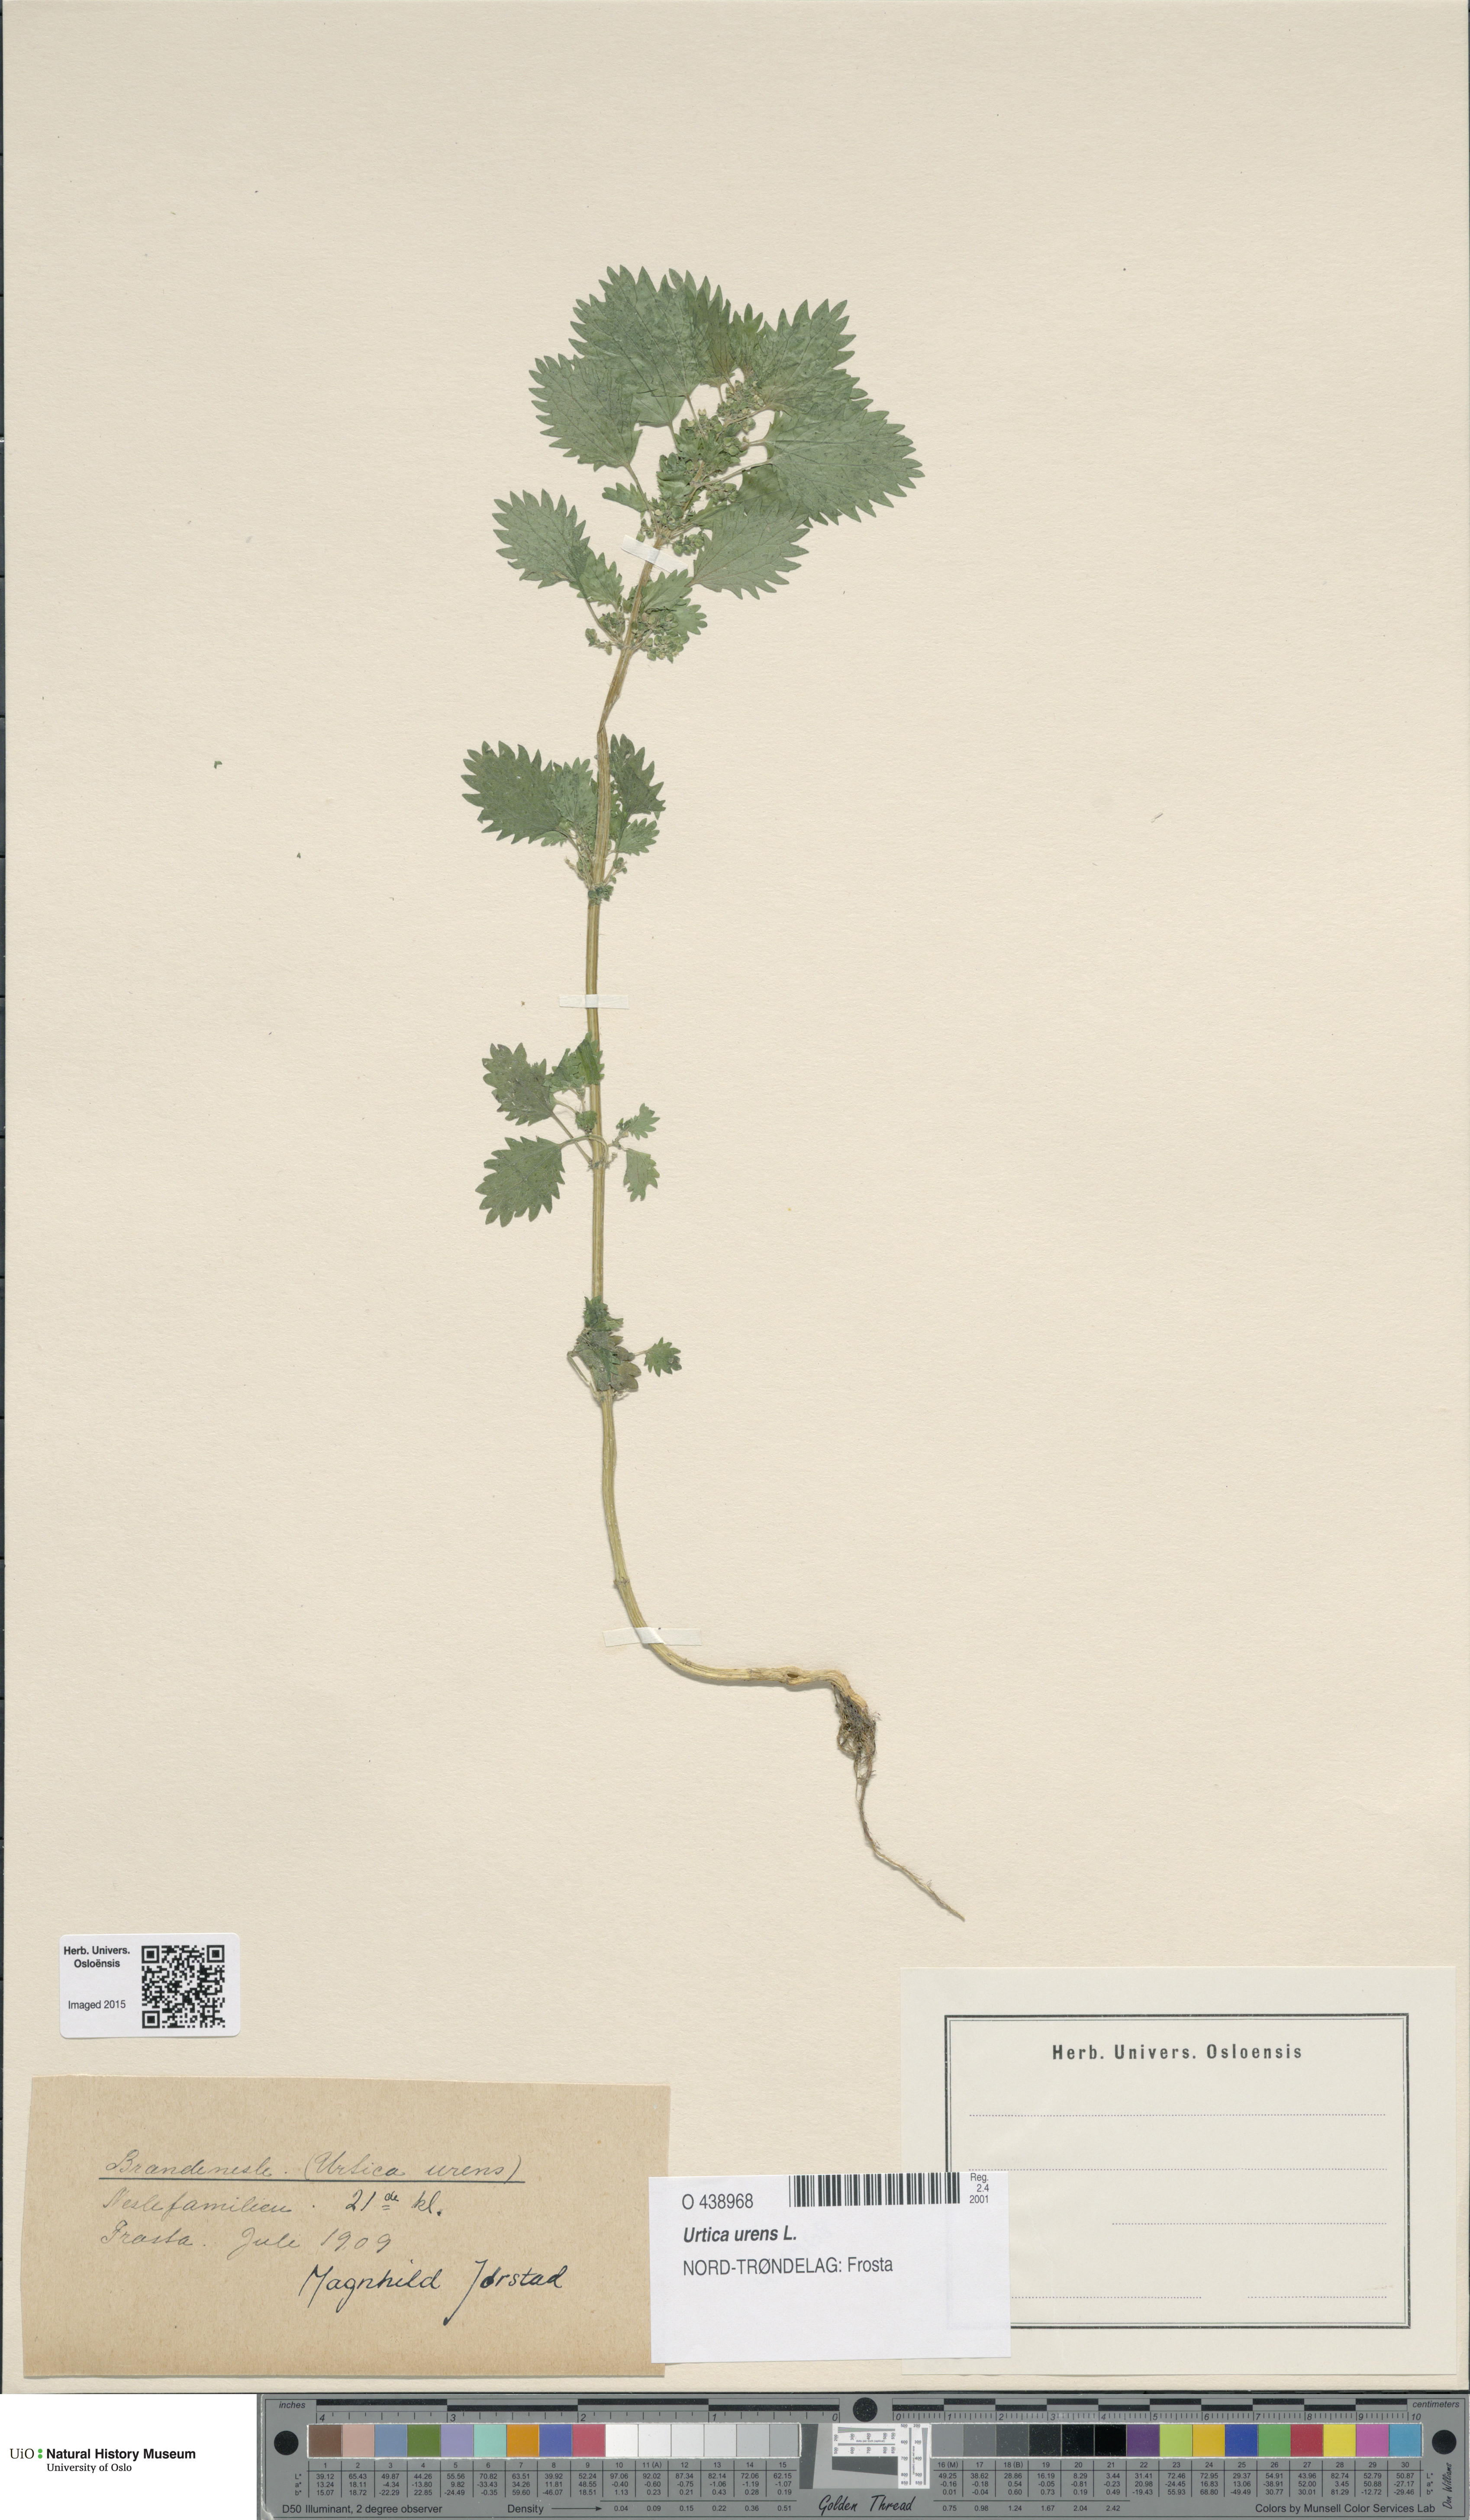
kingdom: Plantae
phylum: Tracheophyta
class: Magnoliopsida
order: Rosales
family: Urticaceae
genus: Urtica
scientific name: Urtica urens
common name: Dwarf nettle
